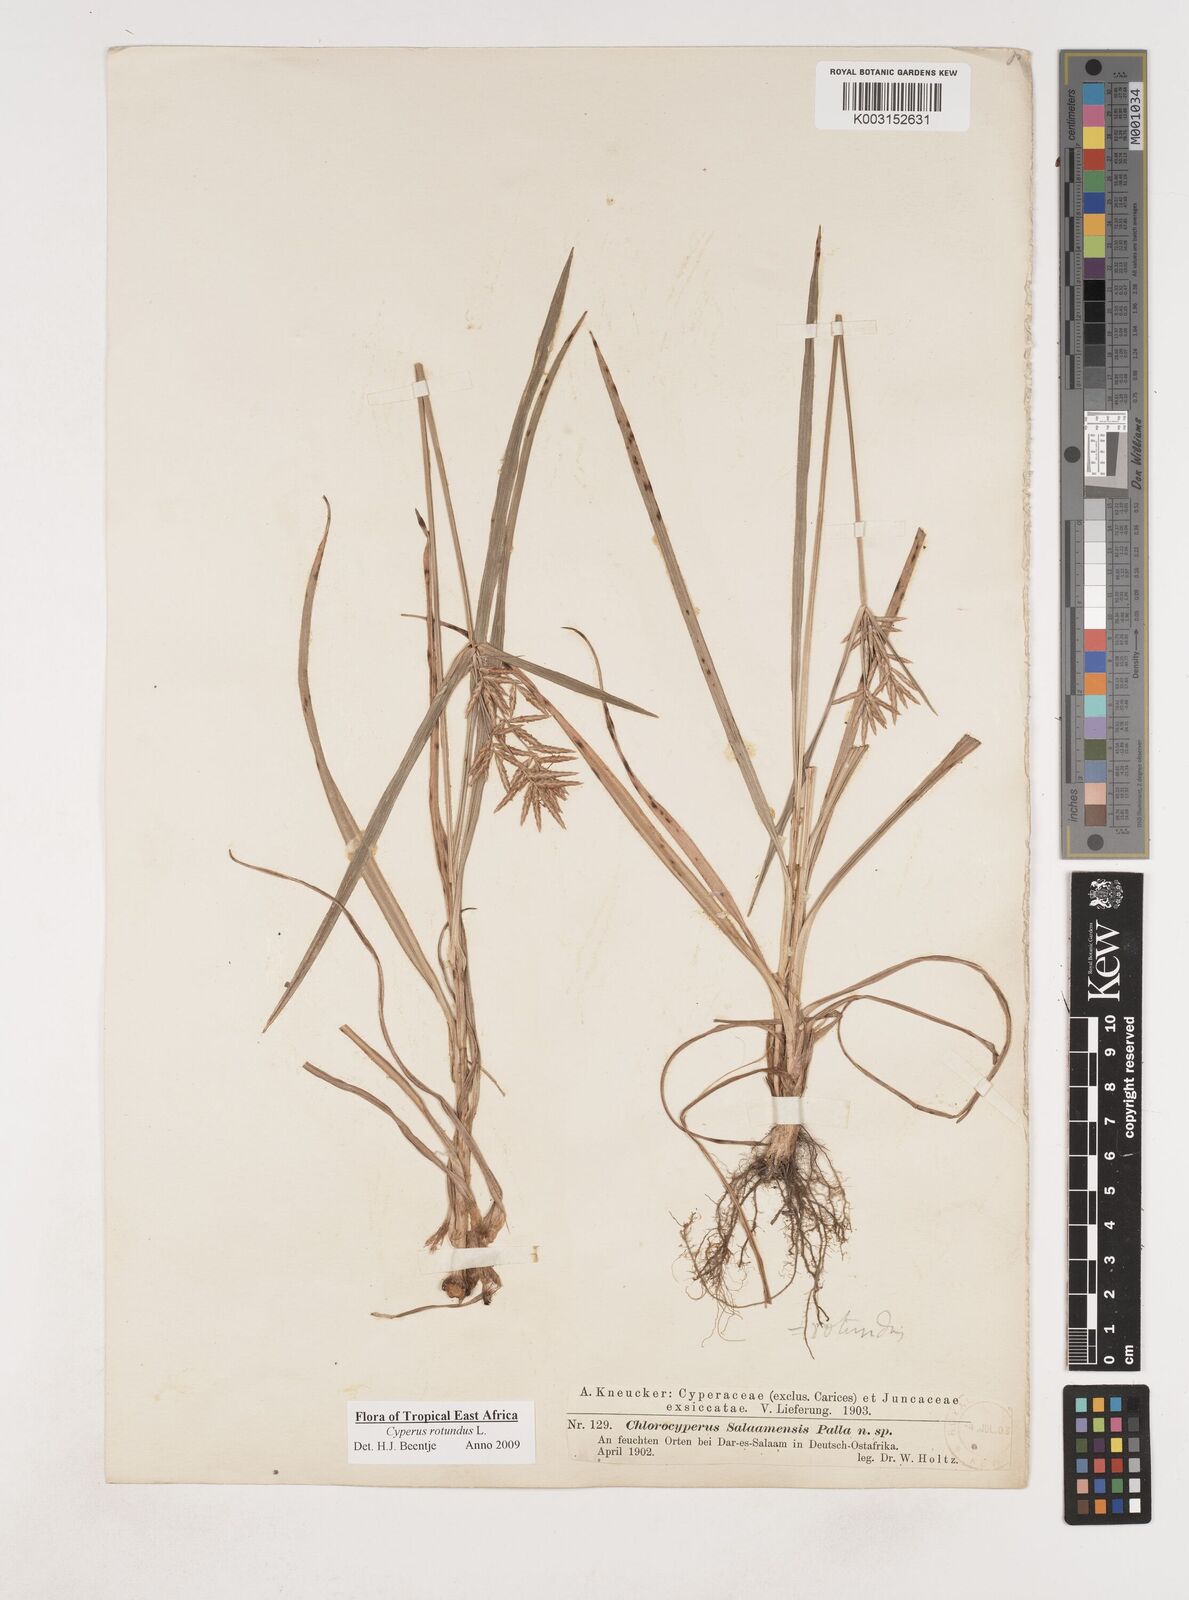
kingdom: Plantae
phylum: Tracheophyta
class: Liliopsida
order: Poales
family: Cyperaceae
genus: Cyperus
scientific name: Cyperus rotundus
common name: Nutgrass
